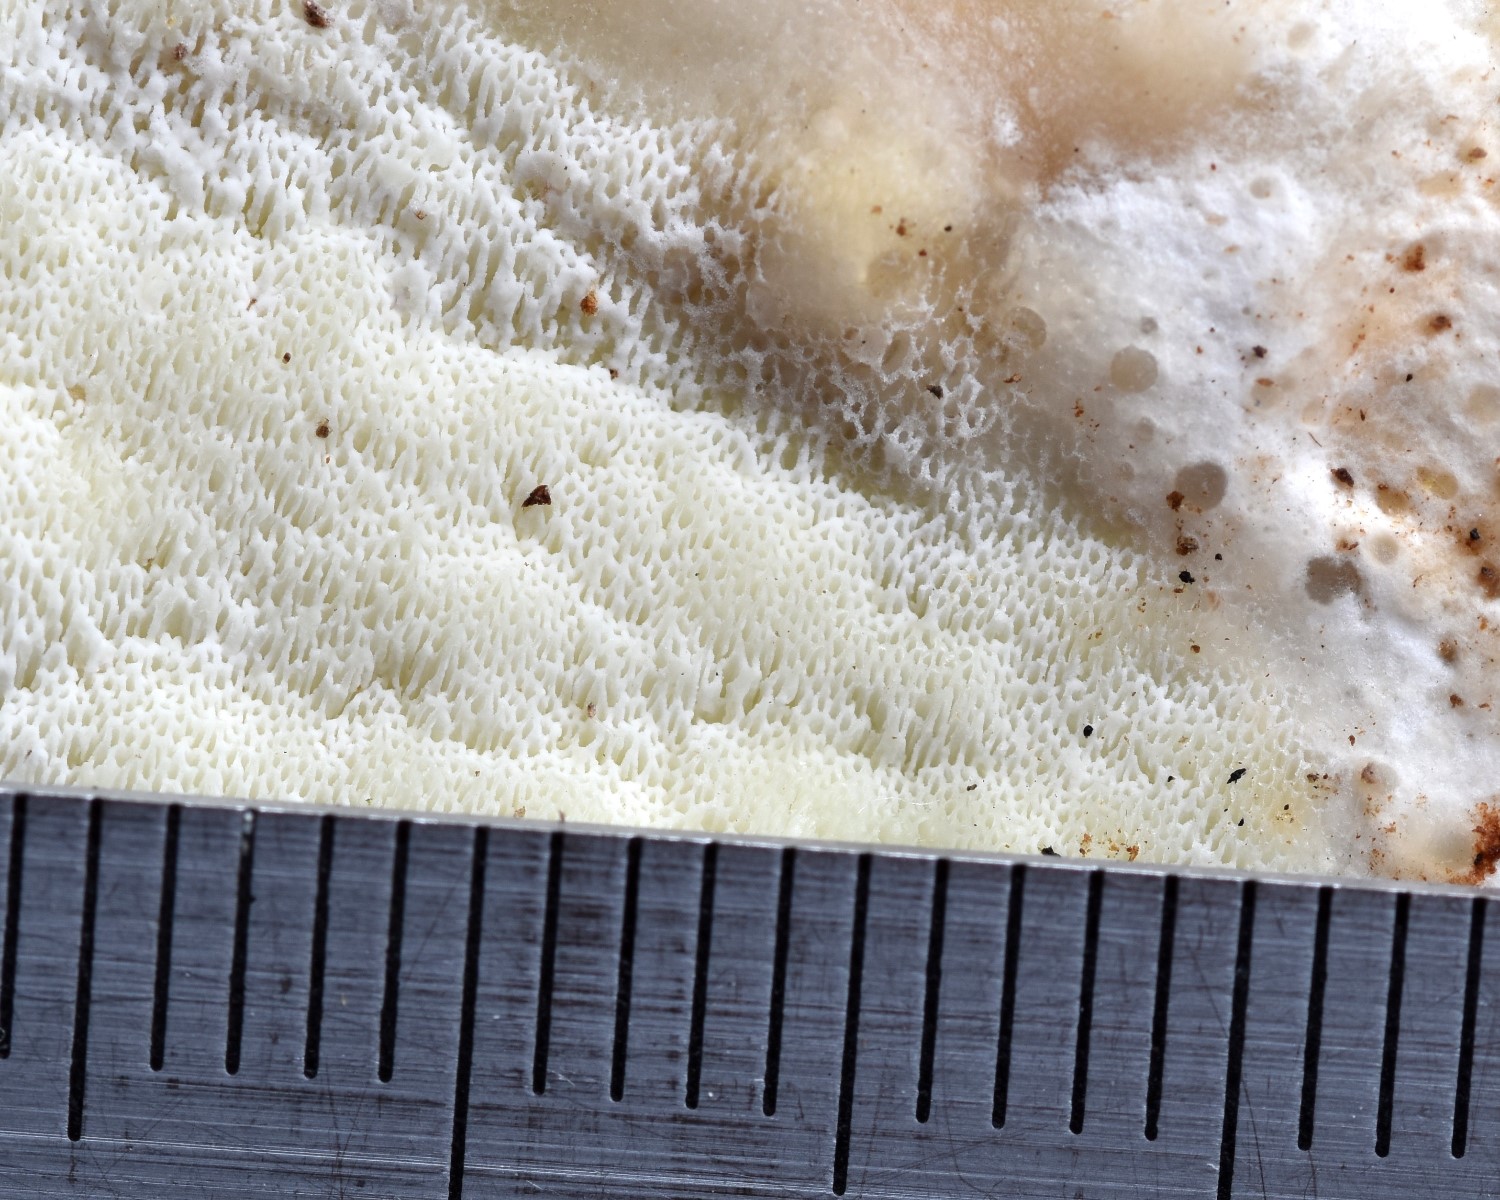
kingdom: Fungi
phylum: Basidiomycota
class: Agaricomycetes
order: Polyporales
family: Irpicaceae
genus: Gloeoporus
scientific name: Gloeoporus pannocinctus
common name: grøngul foldporesvamp
